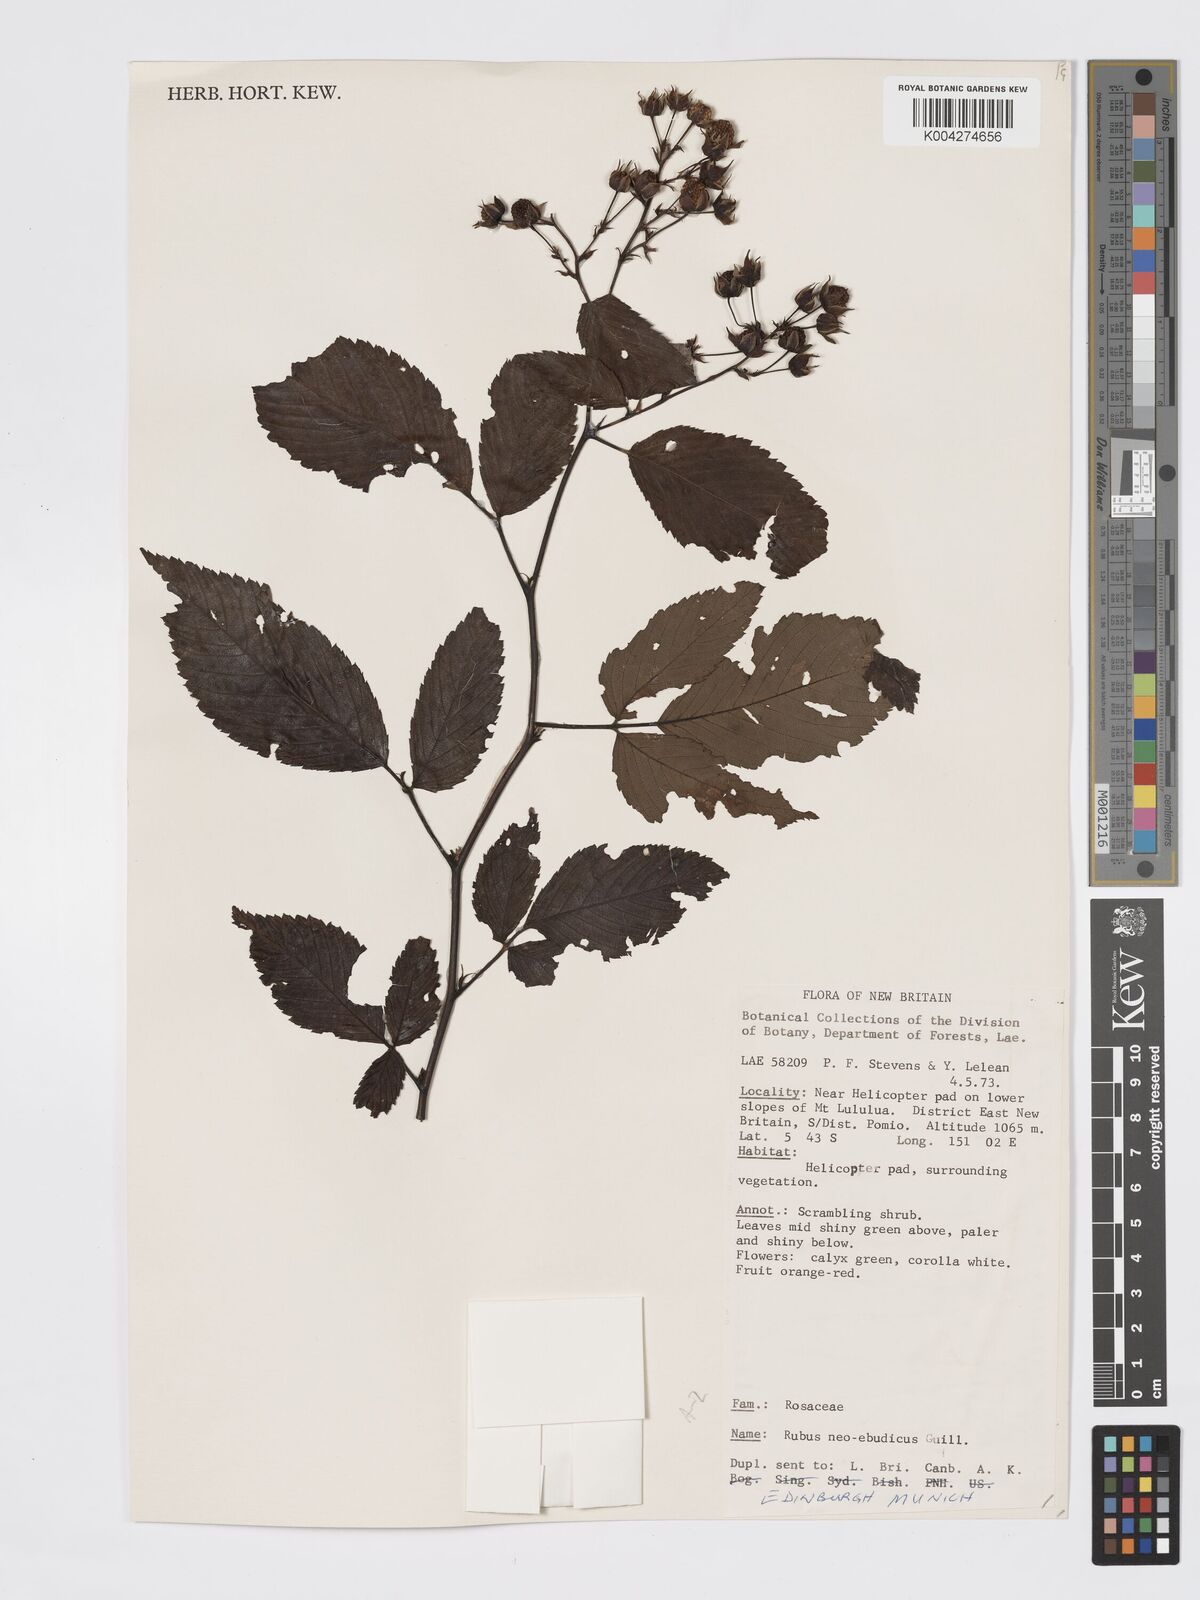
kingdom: Plantae
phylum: Tracheophyta
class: Magnoliopsida
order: Rosales
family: Rosaceae
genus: Rubus
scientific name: Rubus neoebudicus
